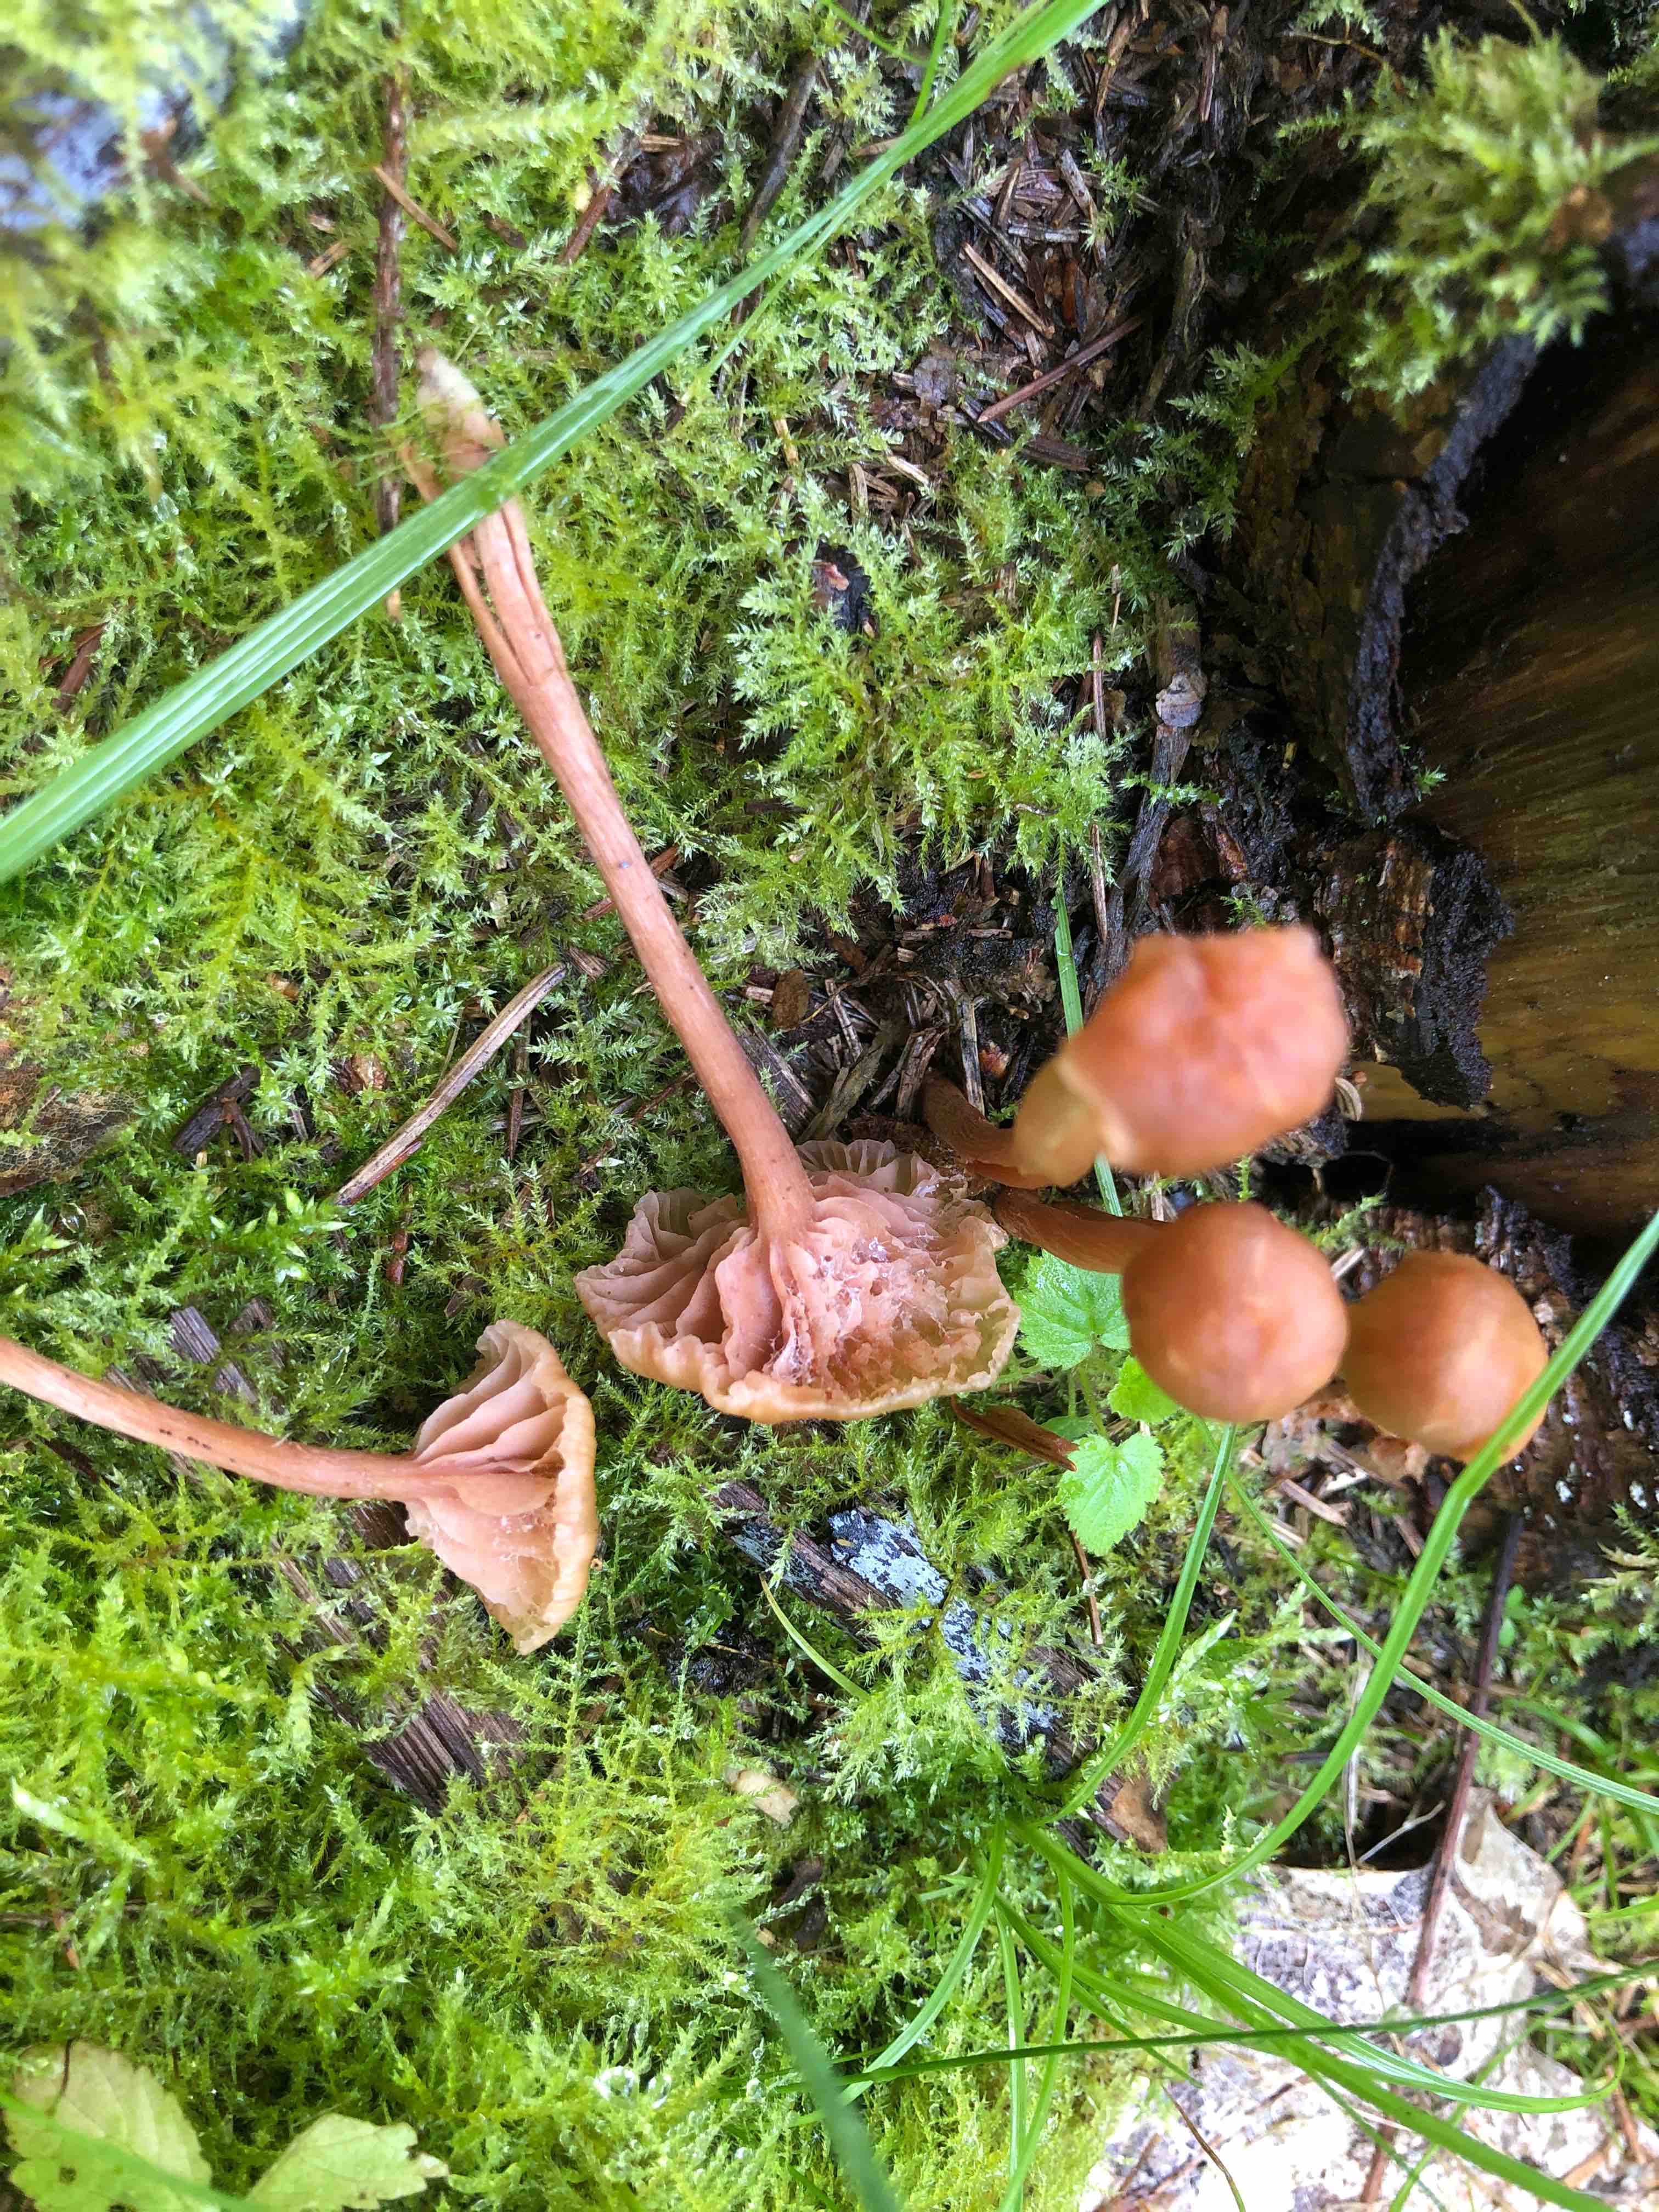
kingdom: Fungi
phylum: Basidiomycota
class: Agaricomycetes
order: Agaricales
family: Hydnangiaceae
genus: Laccaria
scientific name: Laccaria laccata
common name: rød ametysthat
